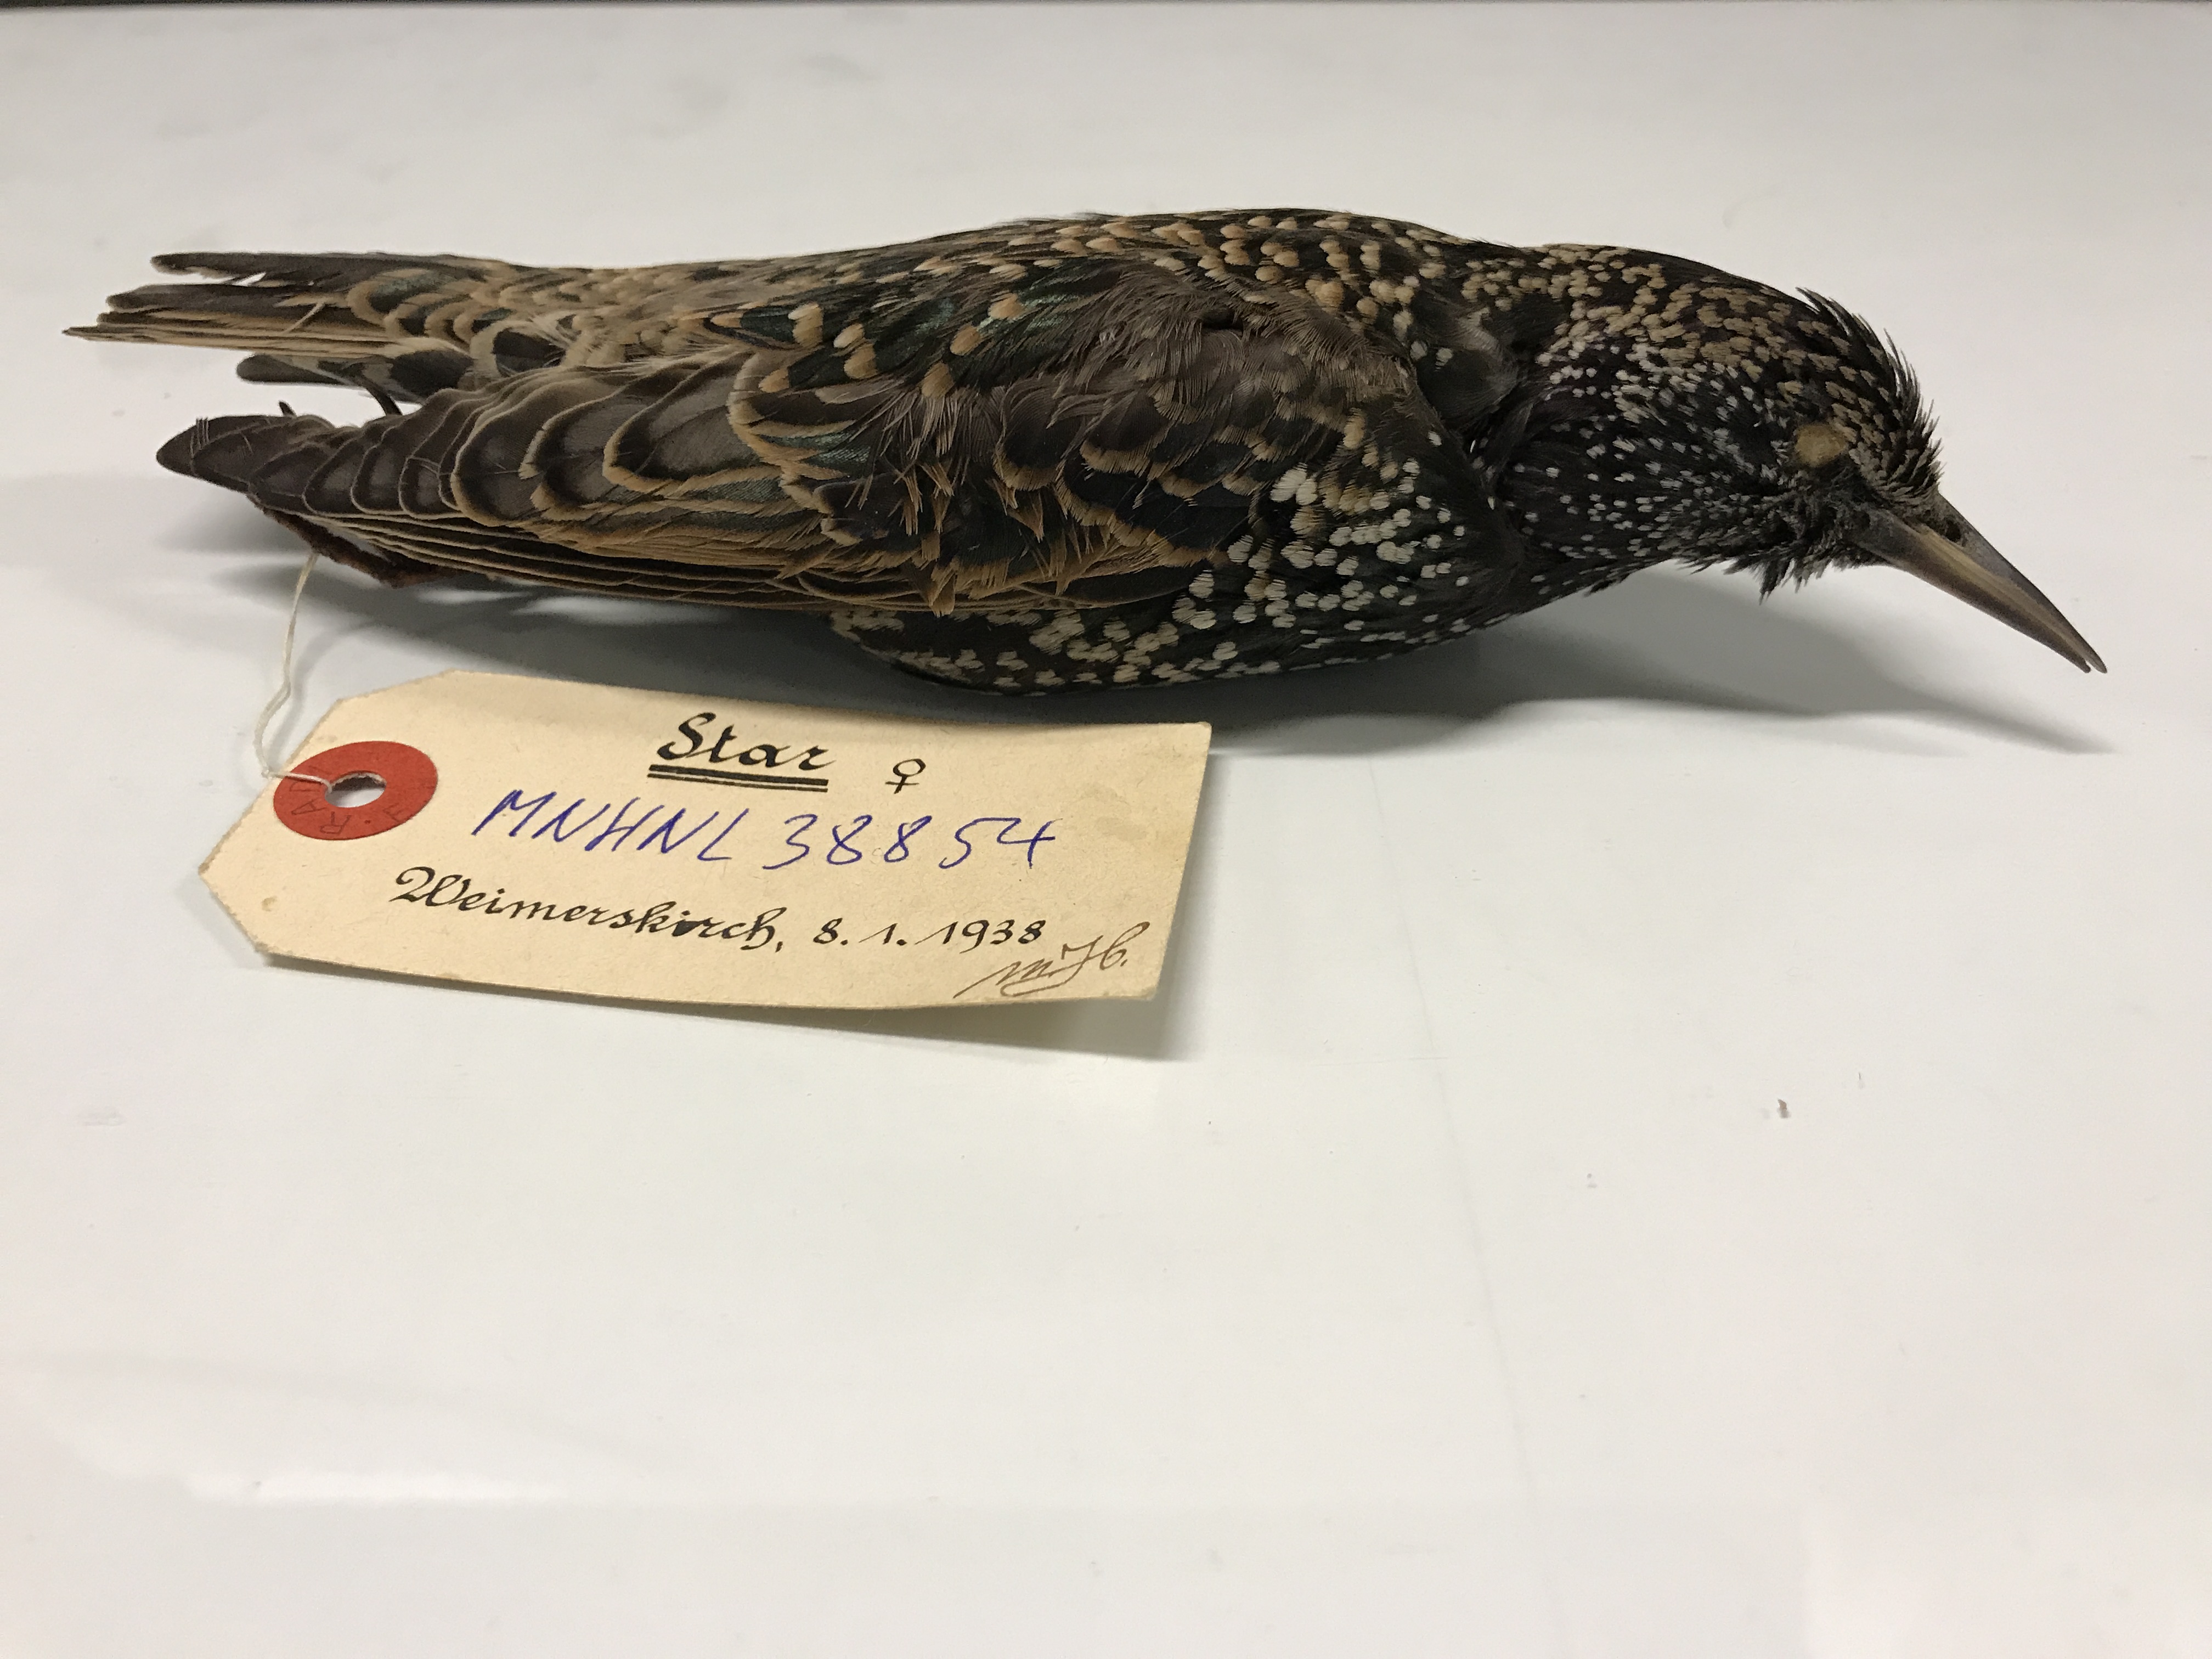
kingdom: Animalia
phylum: Chordata
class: Aves
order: Passeriformes
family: Sturnidae
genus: Sturnus
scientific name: Sturnus vulgaris
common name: Common starling
